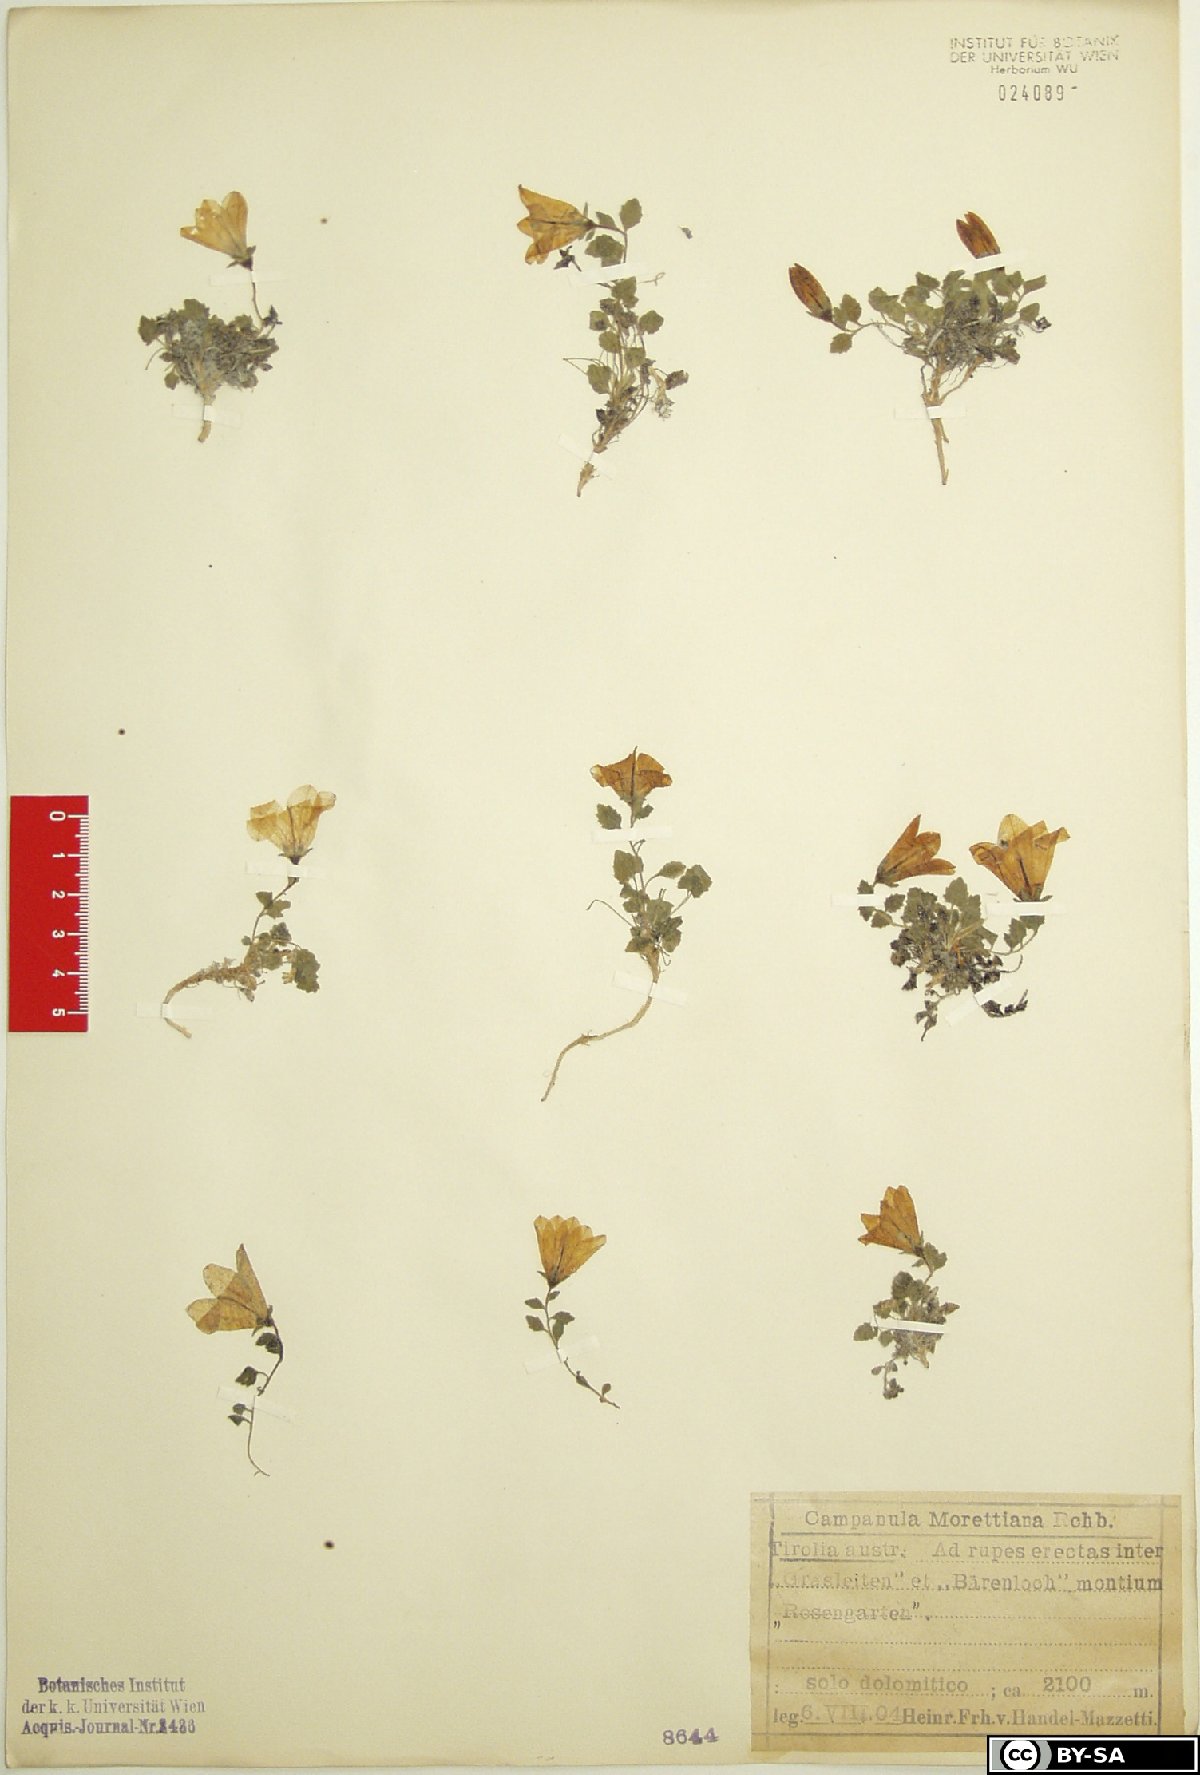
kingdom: Plantae
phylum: Tracheophyta
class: Magnoliopsida
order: Asterales
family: Campanulaceae
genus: Campanula
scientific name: Campanula morettiana
